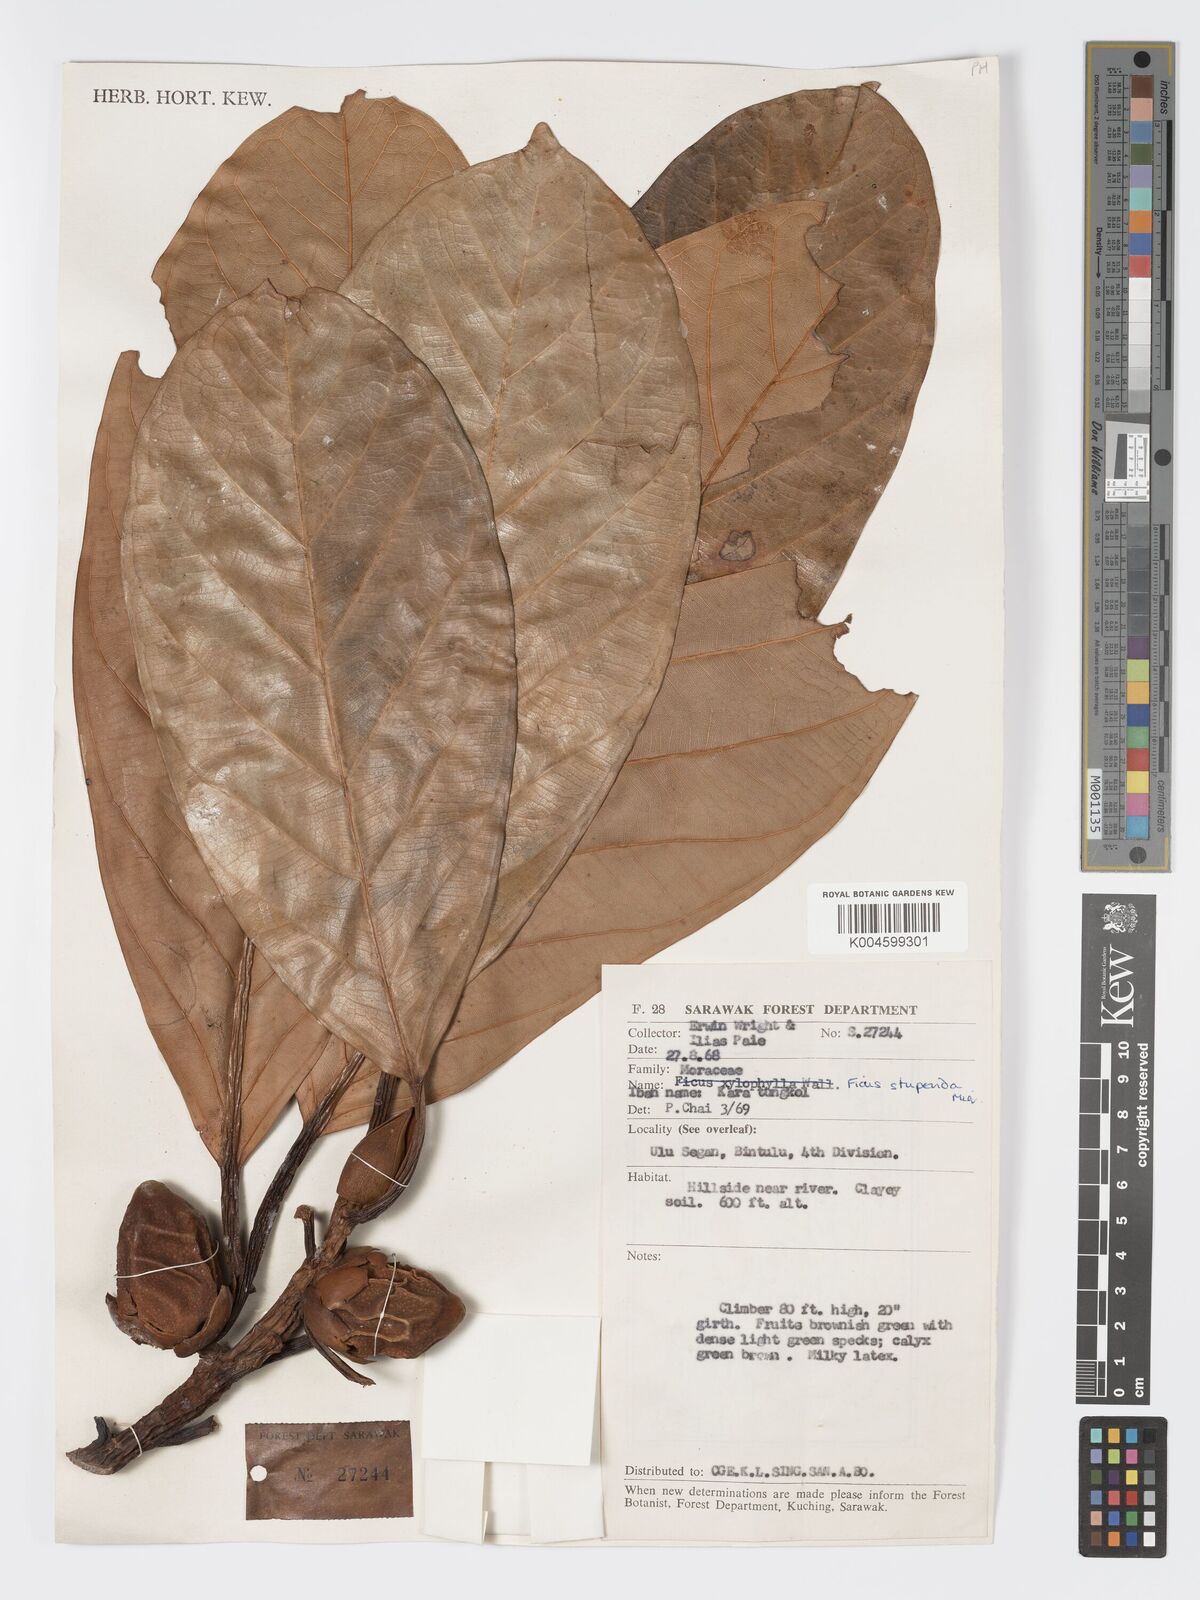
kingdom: Plantae
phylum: Tracheophyta
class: Magnoliopsida
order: Rosales
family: Moraceae
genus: Ficus
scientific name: Ficus crassiramea
